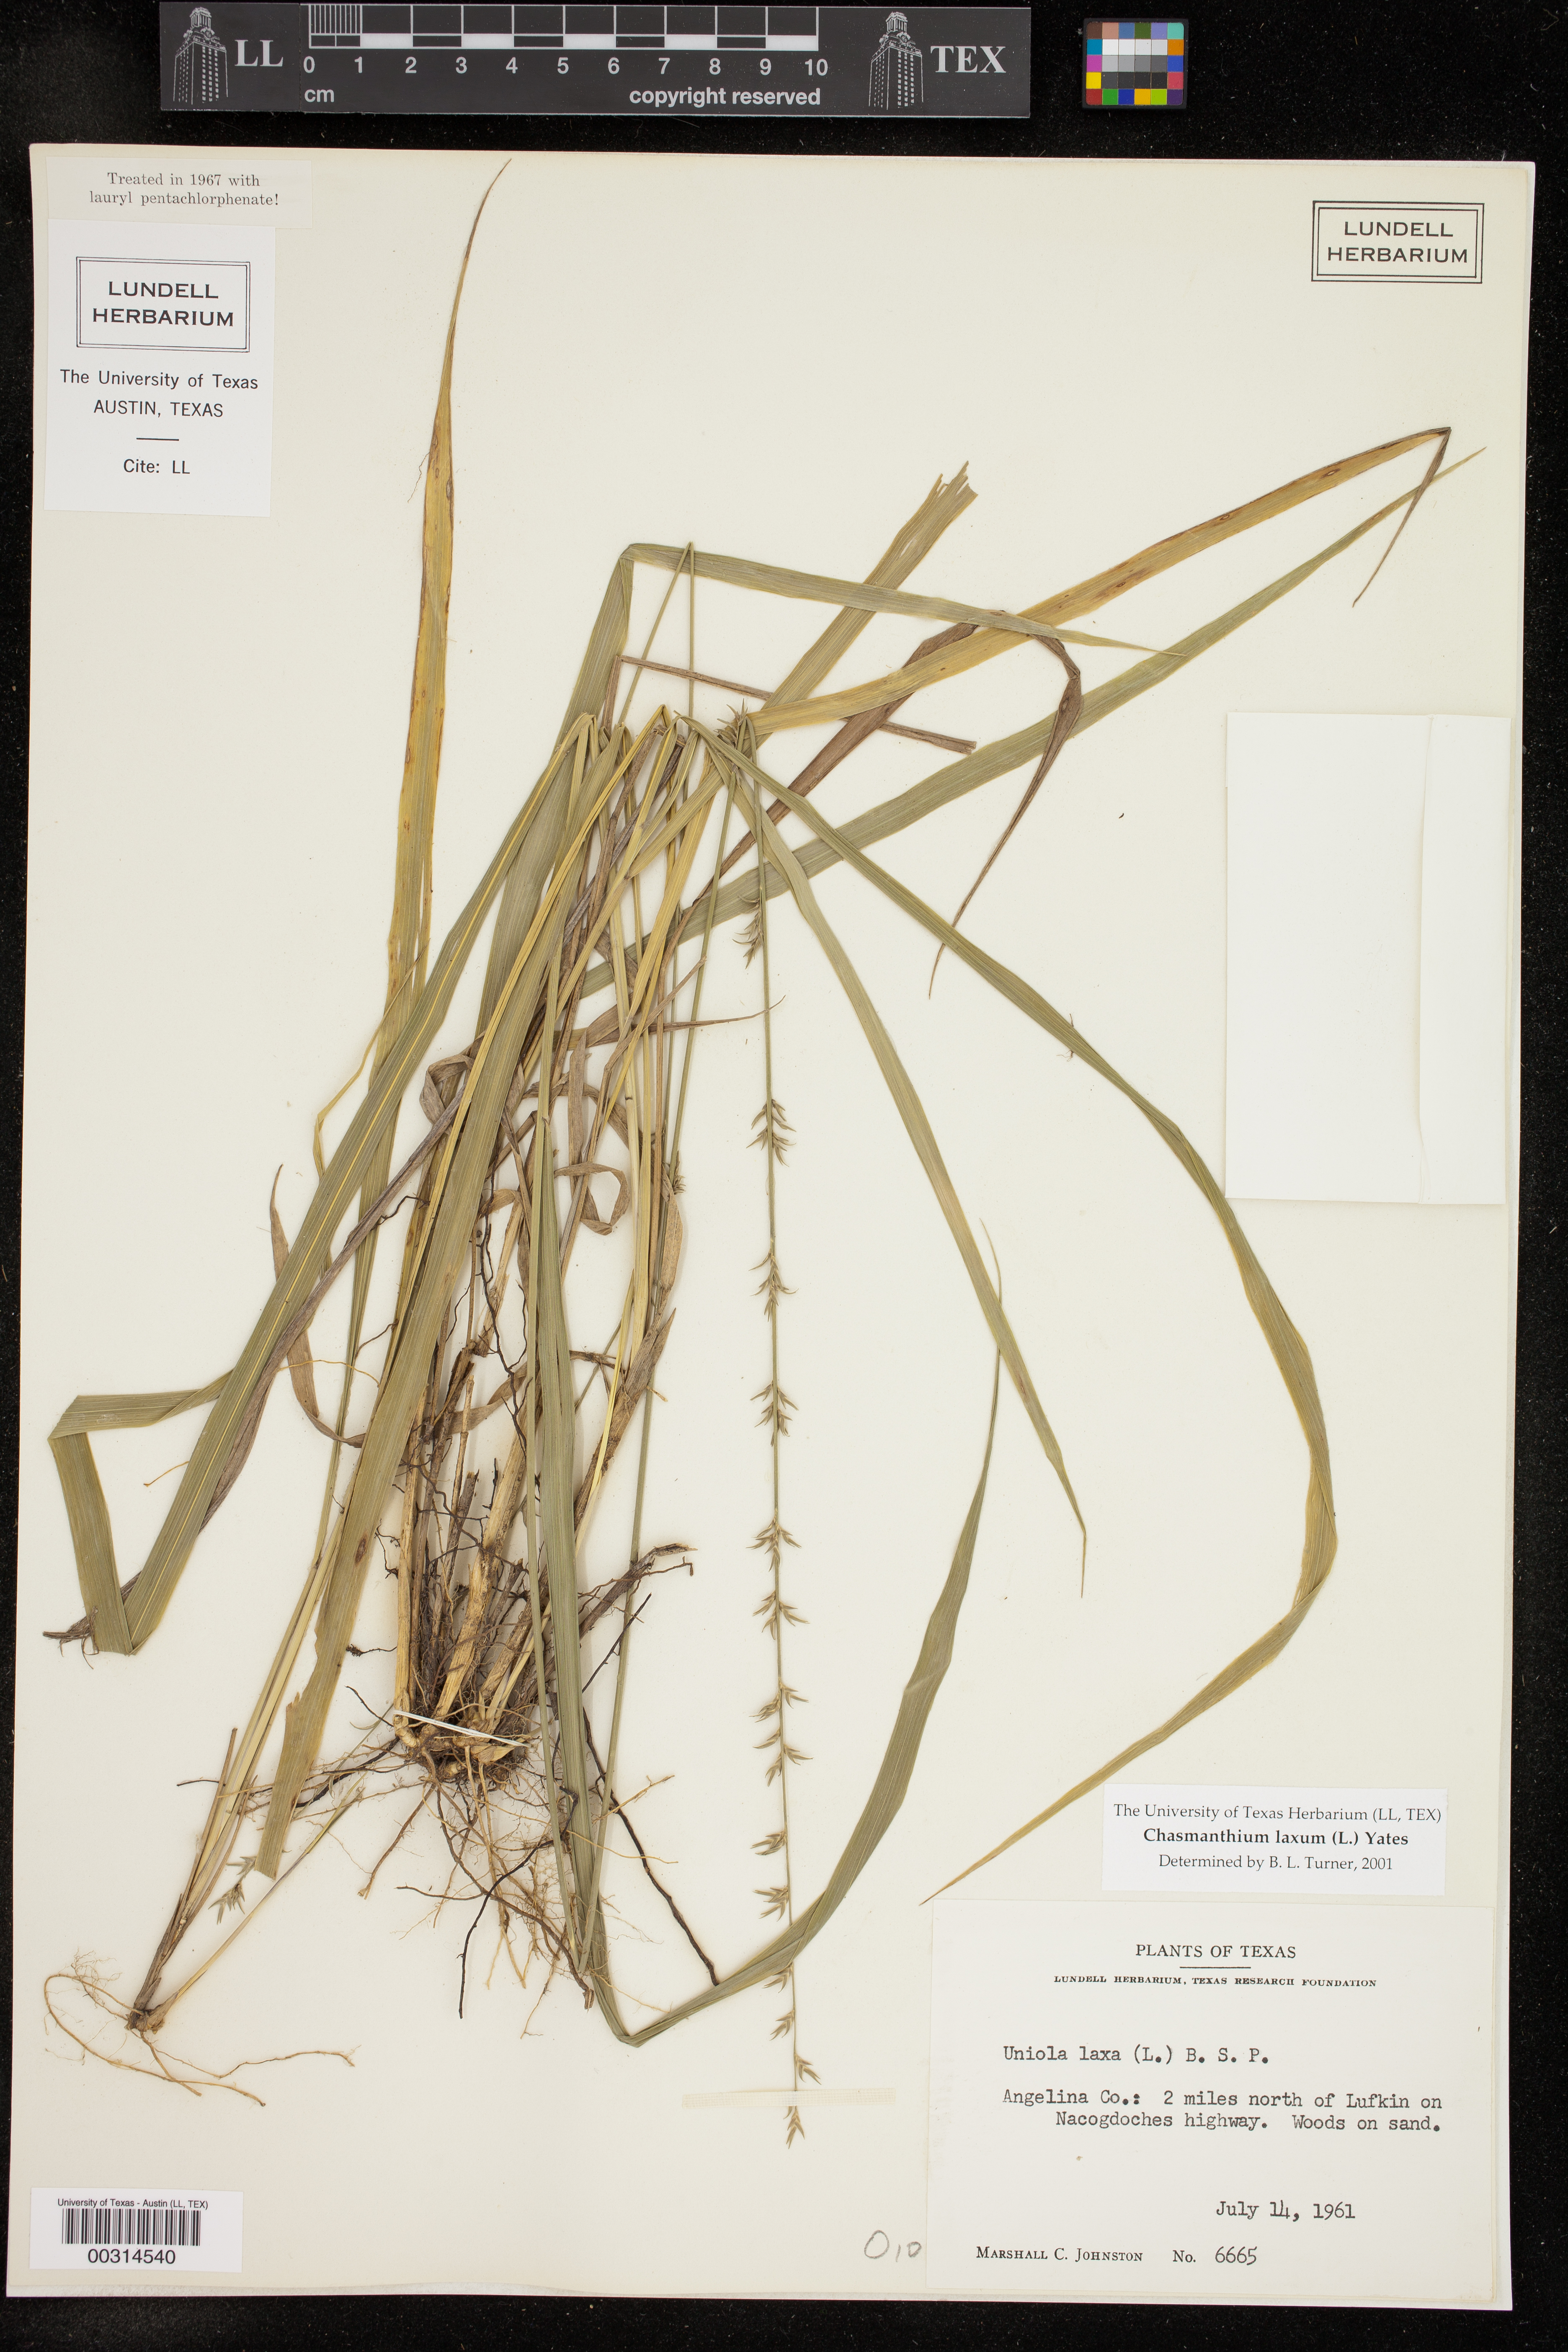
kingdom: Plantae
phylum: Tracheophyta
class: Liliopsida
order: Poales
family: Poaceae
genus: Chasmanthium
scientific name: Chasmanthium laxum
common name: Slender chasmanthium
